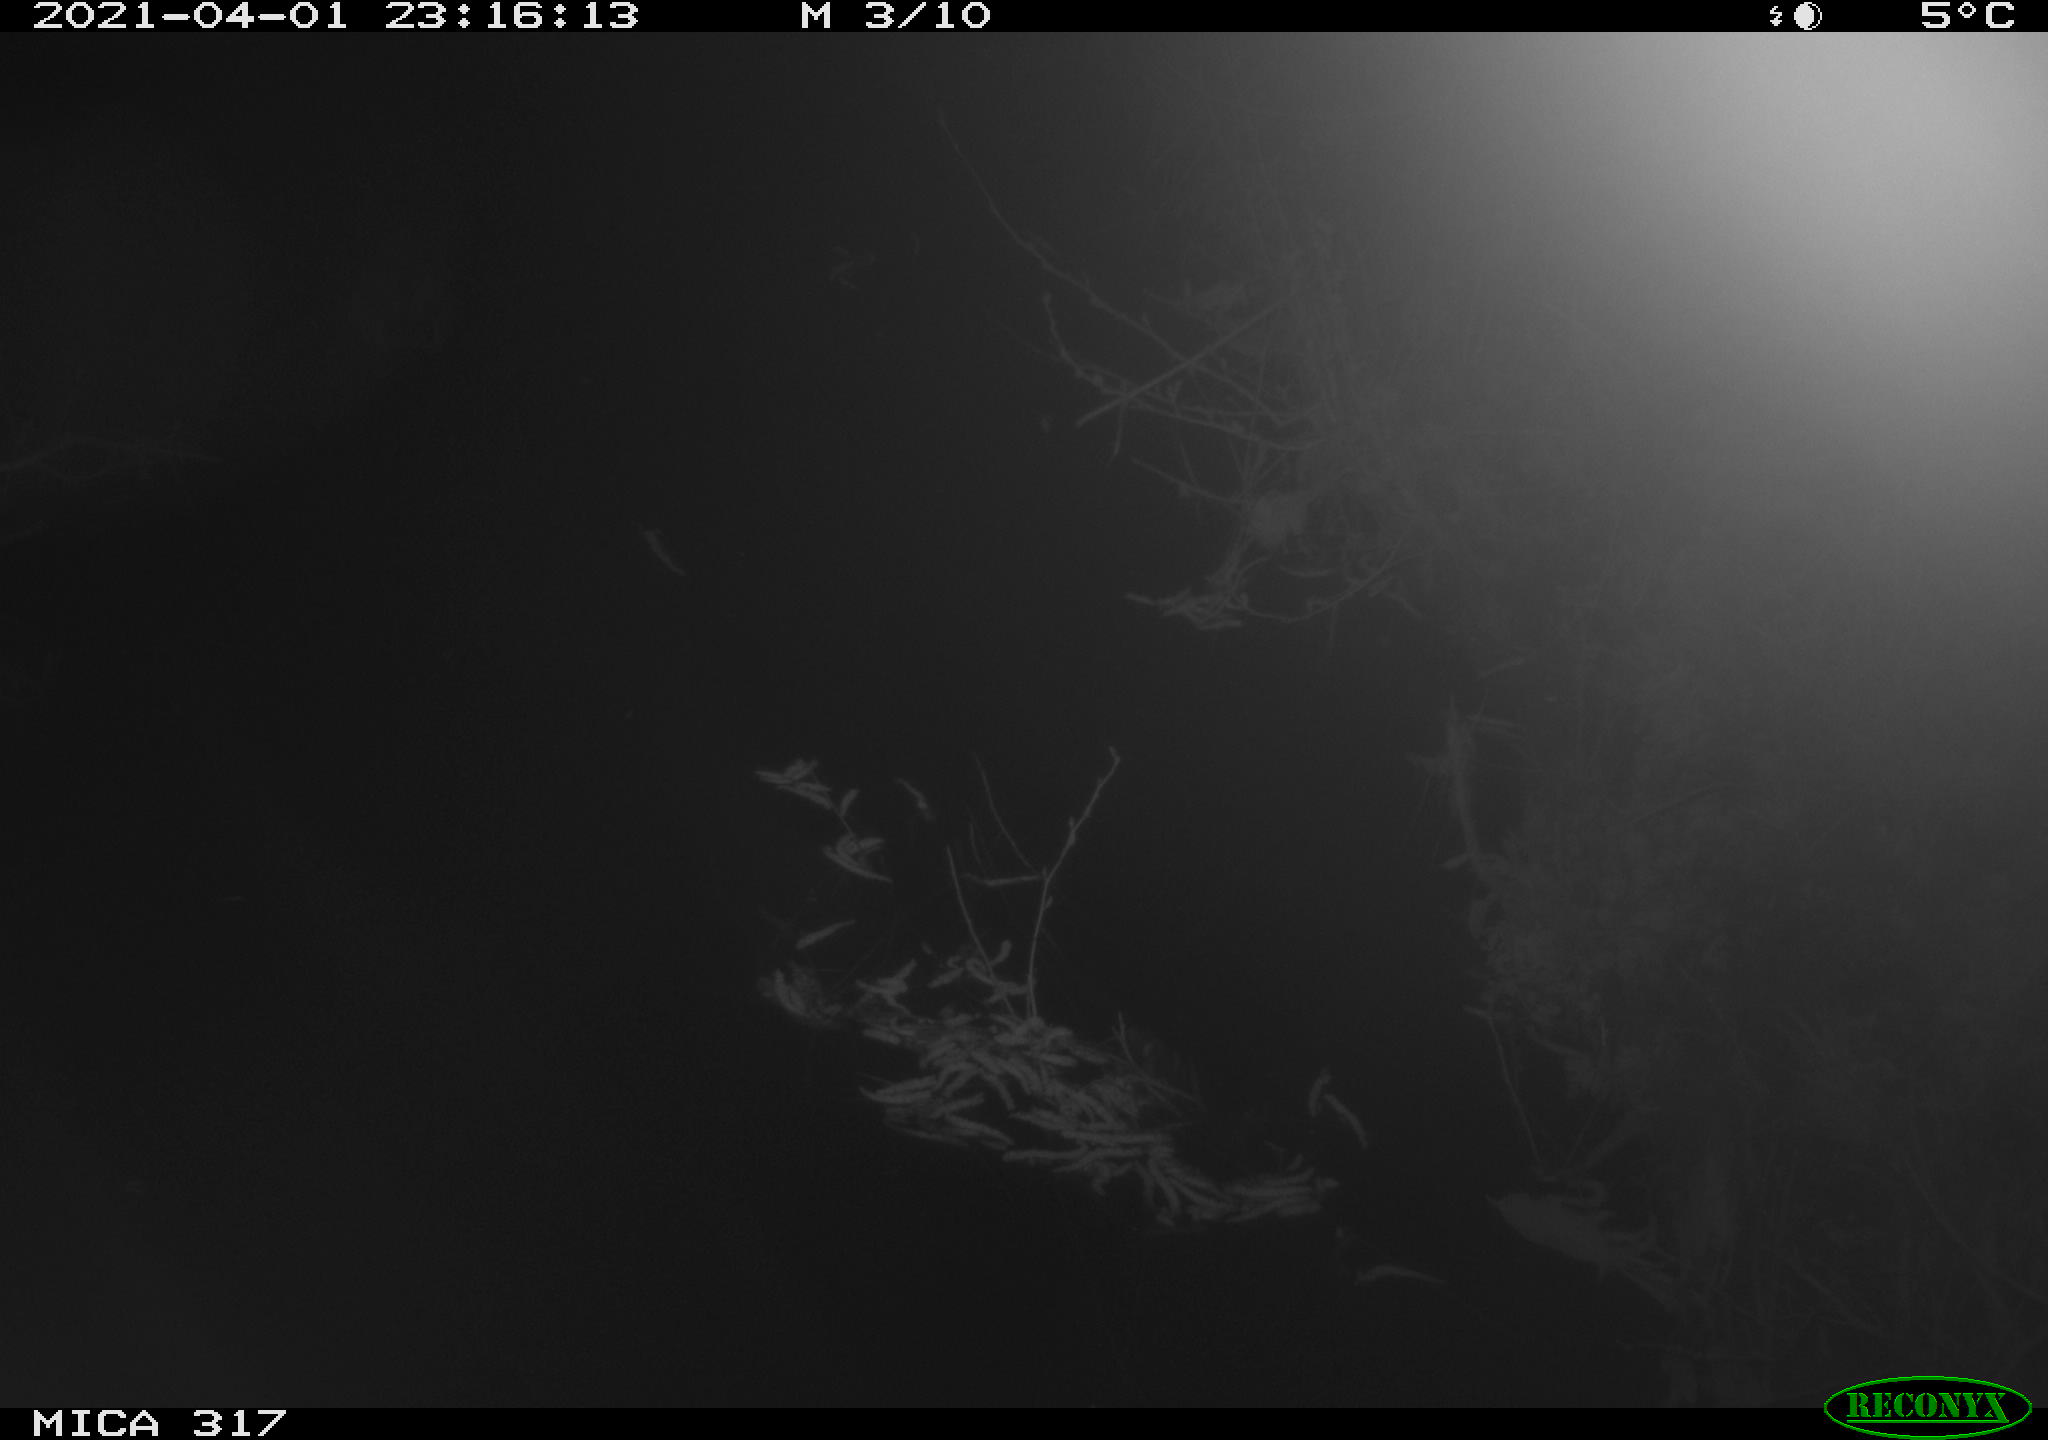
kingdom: Animalia
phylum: Chordata
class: Aves
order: Anseriformes
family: Anatidae
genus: Anas
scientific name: Anas platyrhynchos
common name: Mallard
